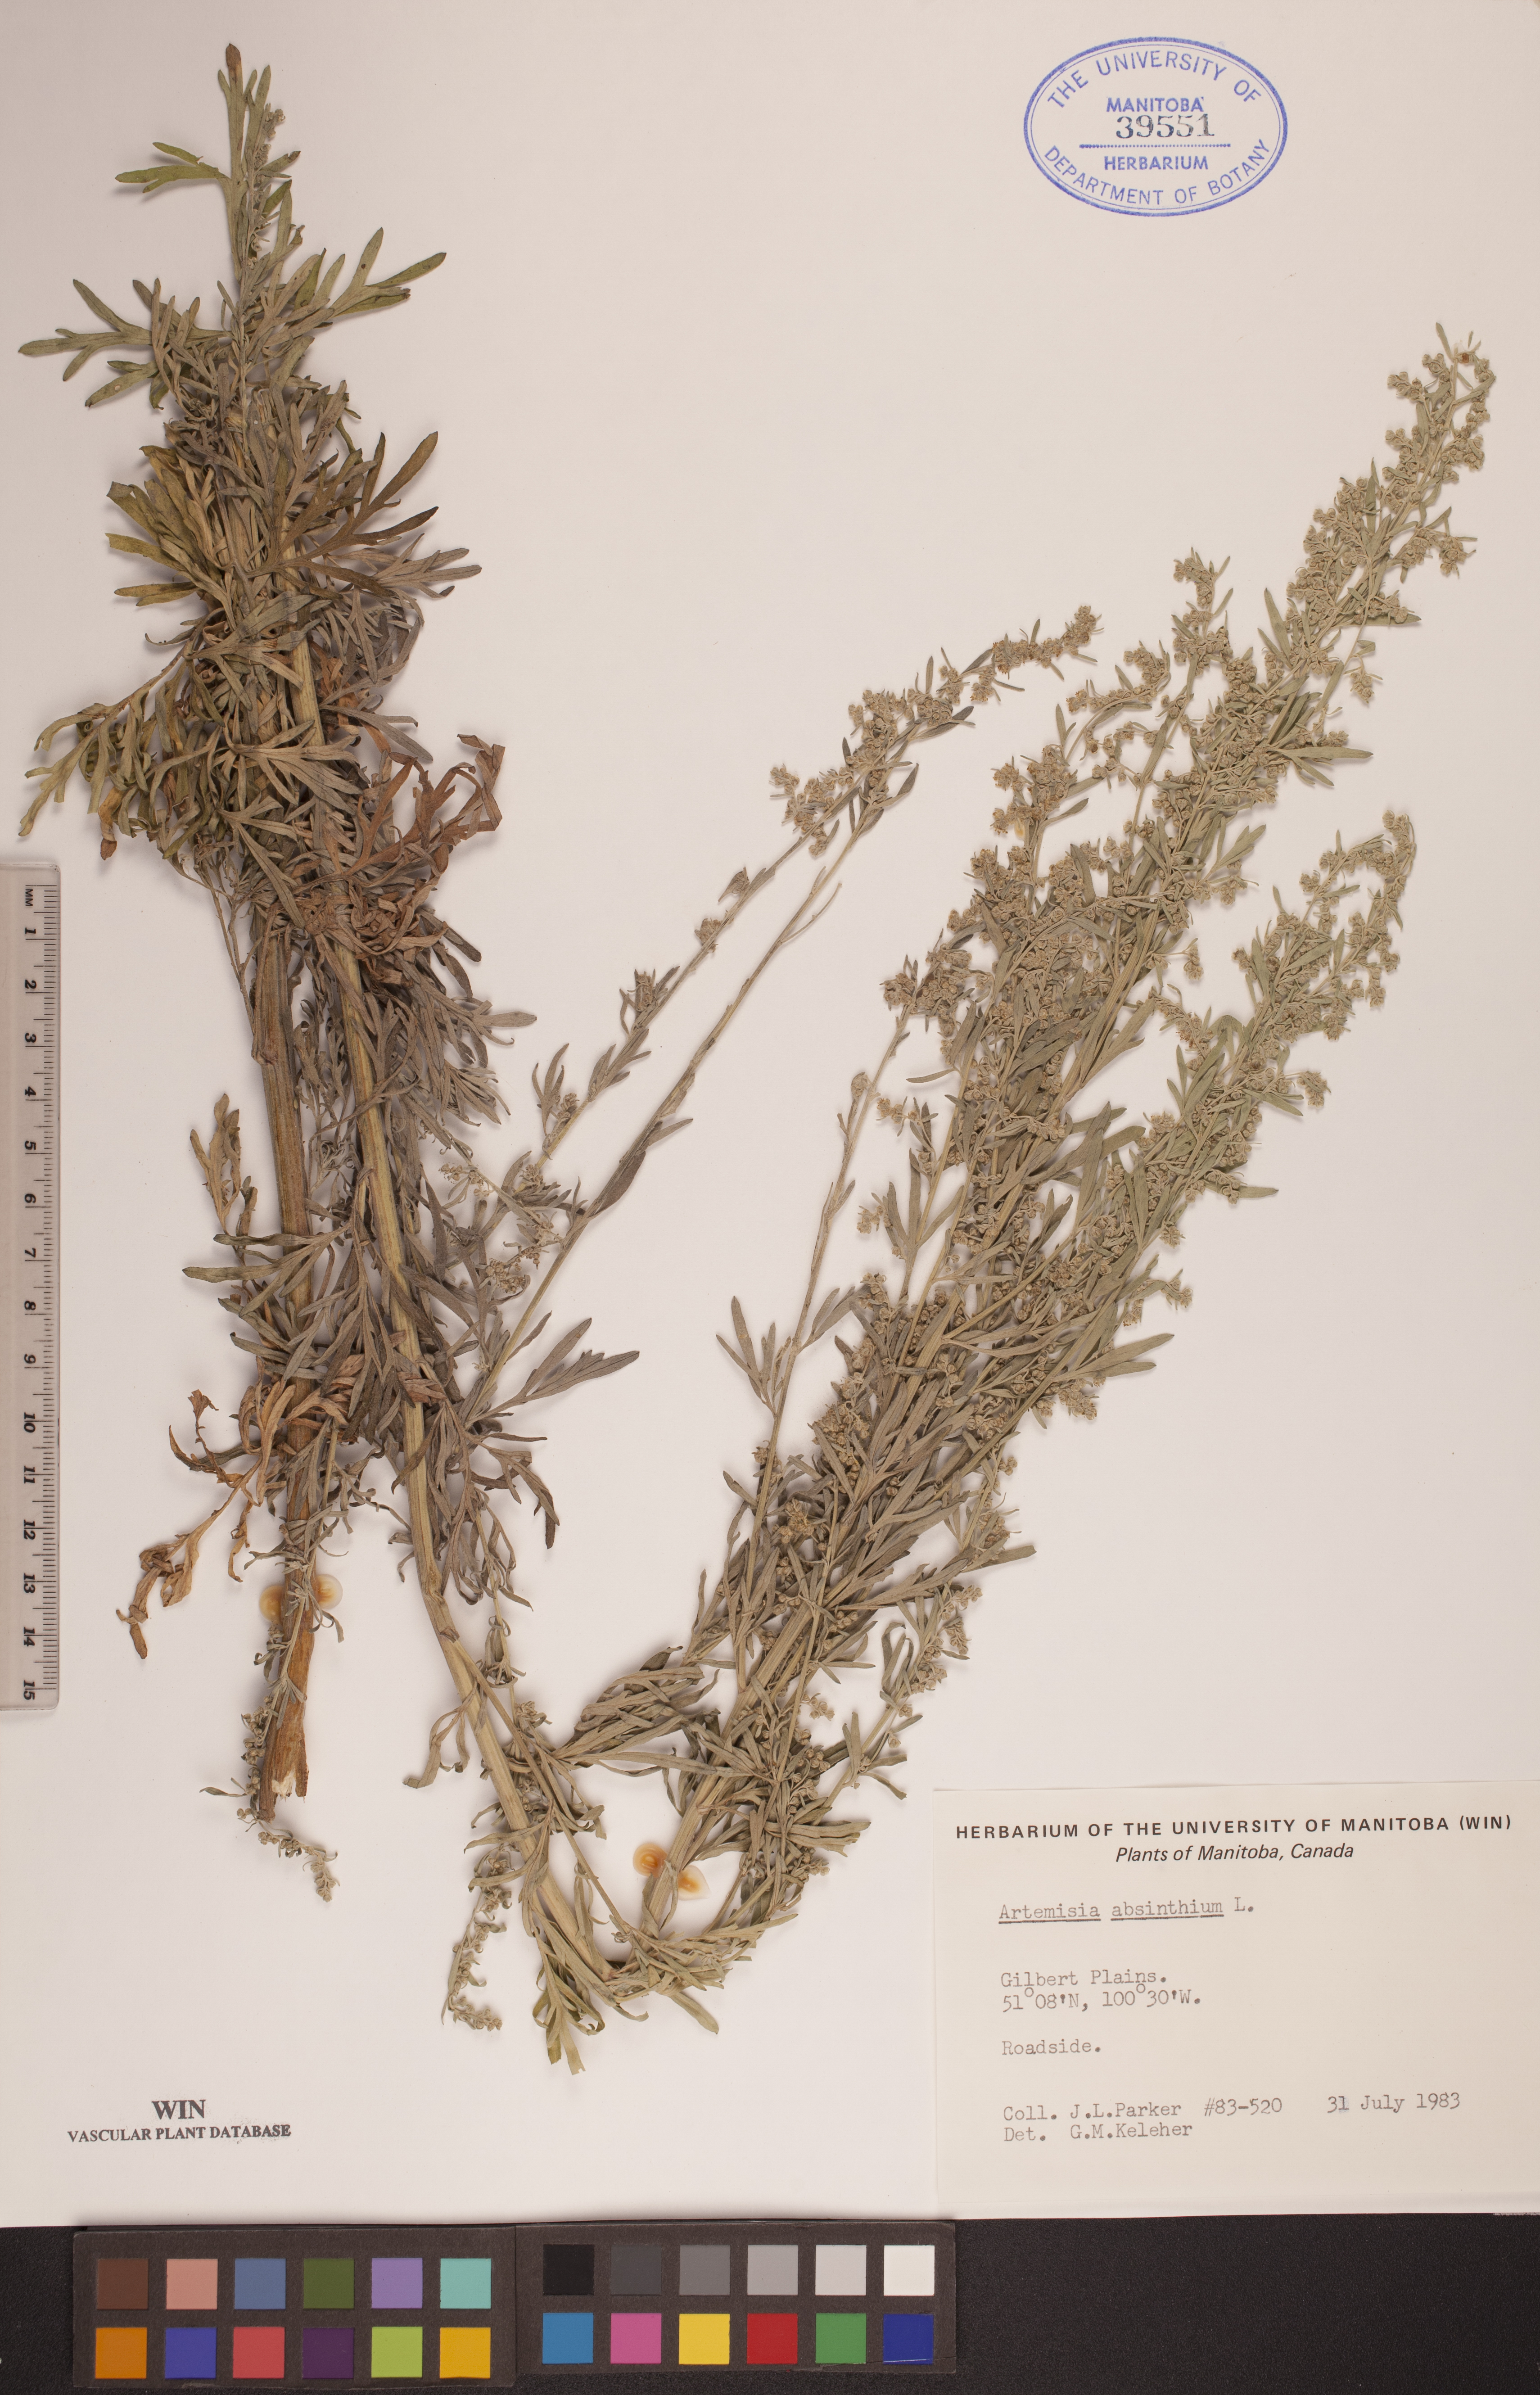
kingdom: Plantae
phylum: Tracheophyta
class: Magnoliopsida
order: Asterales
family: Asteraceae
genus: Artemisia
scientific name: Artemisia absinthium
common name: Wormwood
